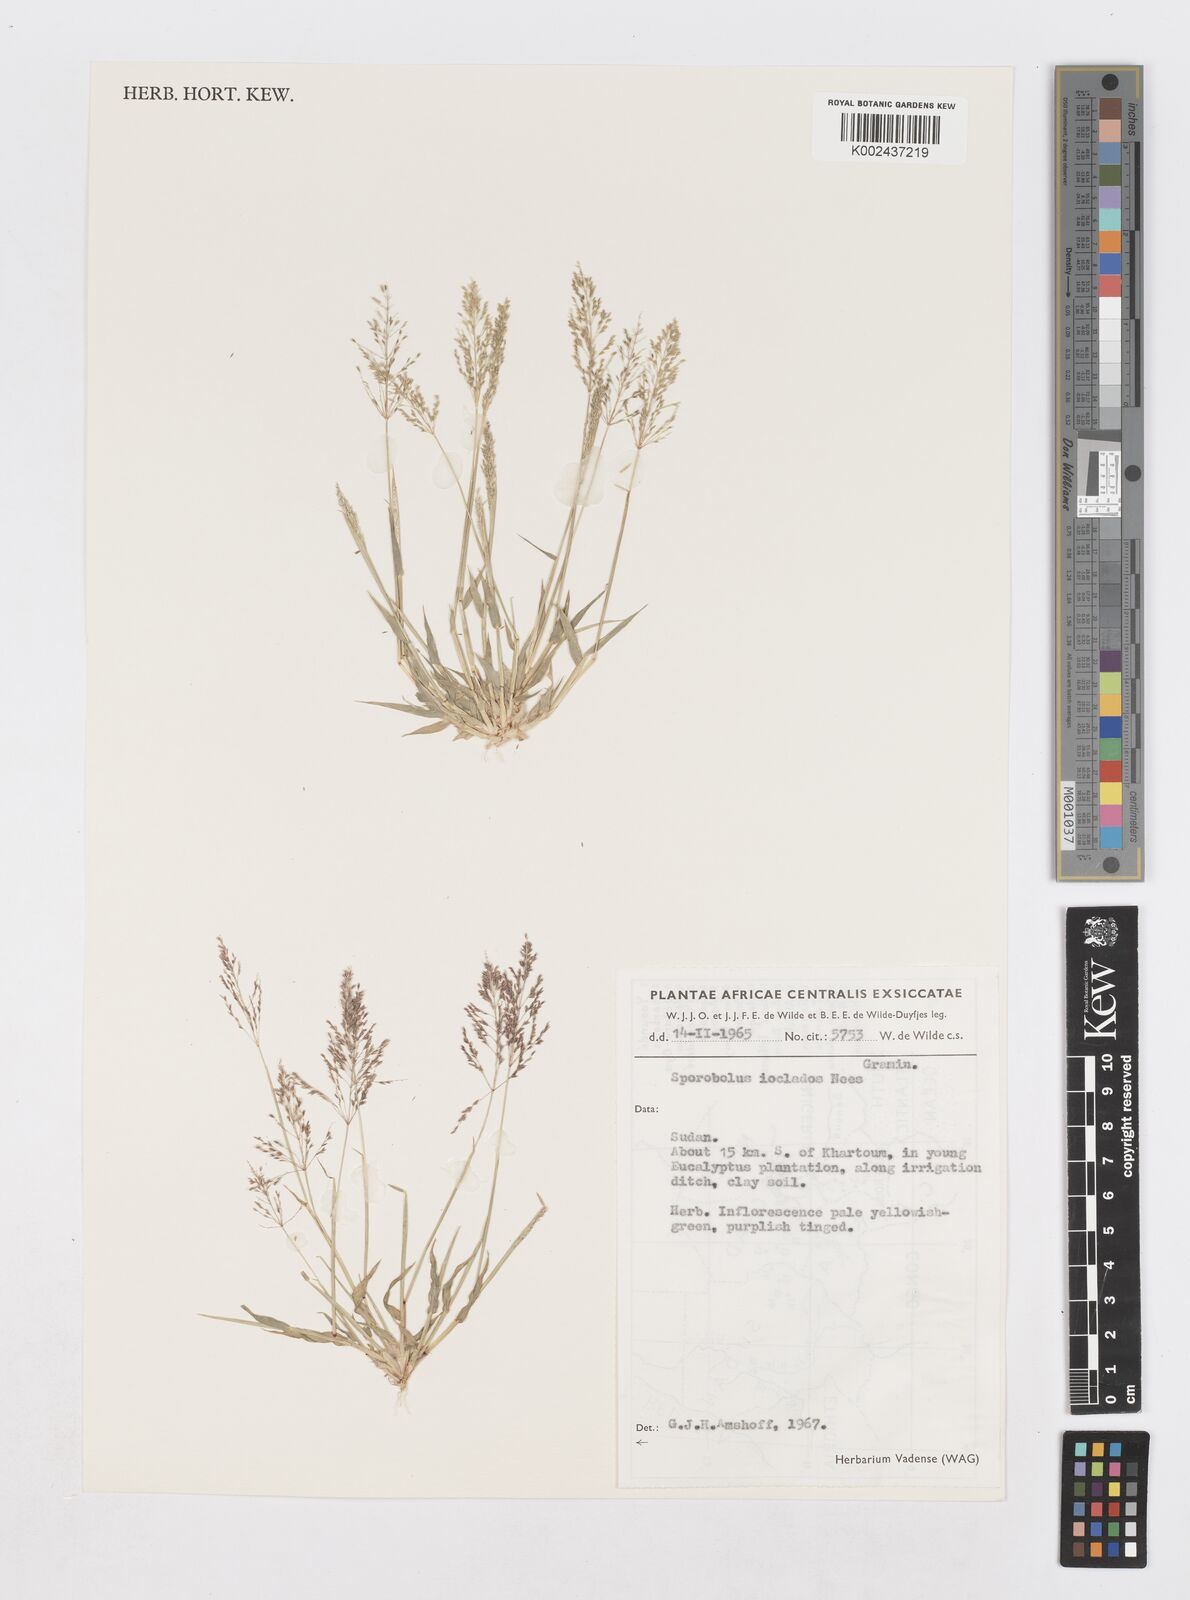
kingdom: Plantae
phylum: Tracheophyta
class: Liliopsida
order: Poales
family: Poaceae
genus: Sporobolus
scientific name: Sporobolus ioclados
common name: Pan dropseed
